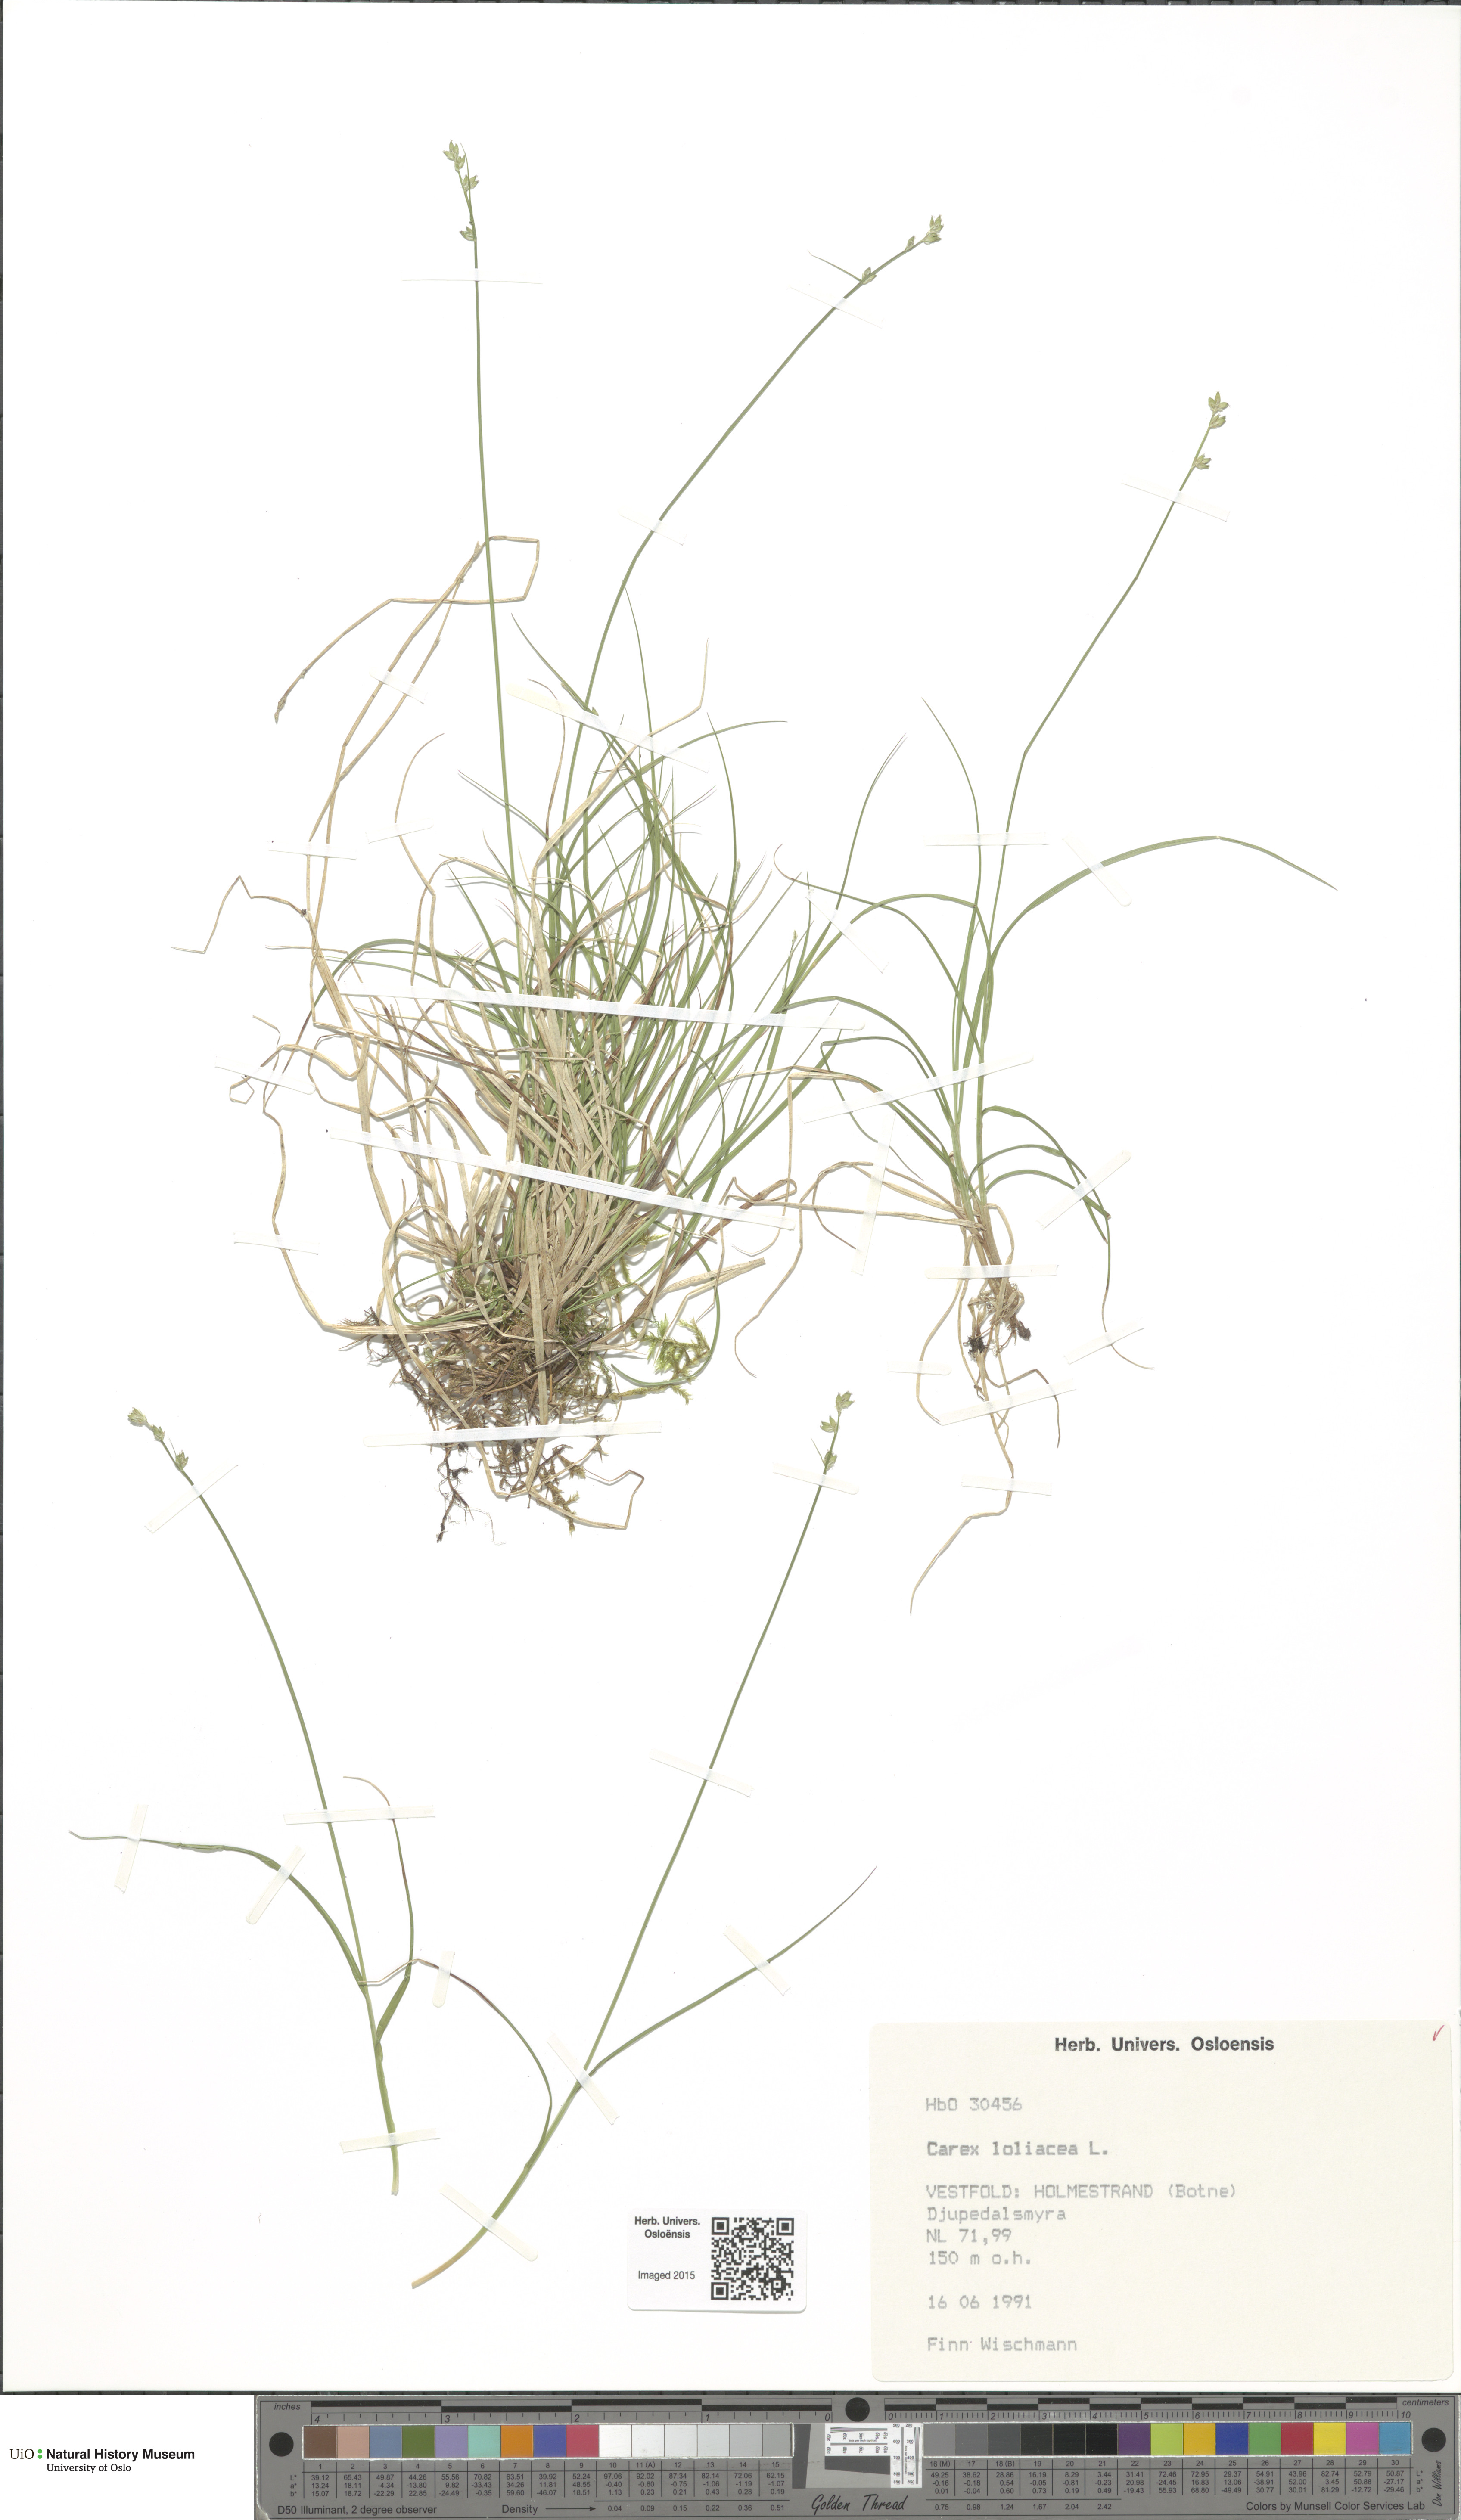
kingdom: Plantae
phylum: Tracheophyta
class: Liliopsida
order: Poales
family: Cyperaceae
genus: Carex
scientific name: Carex loliacea
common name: Ryegrass sedge
